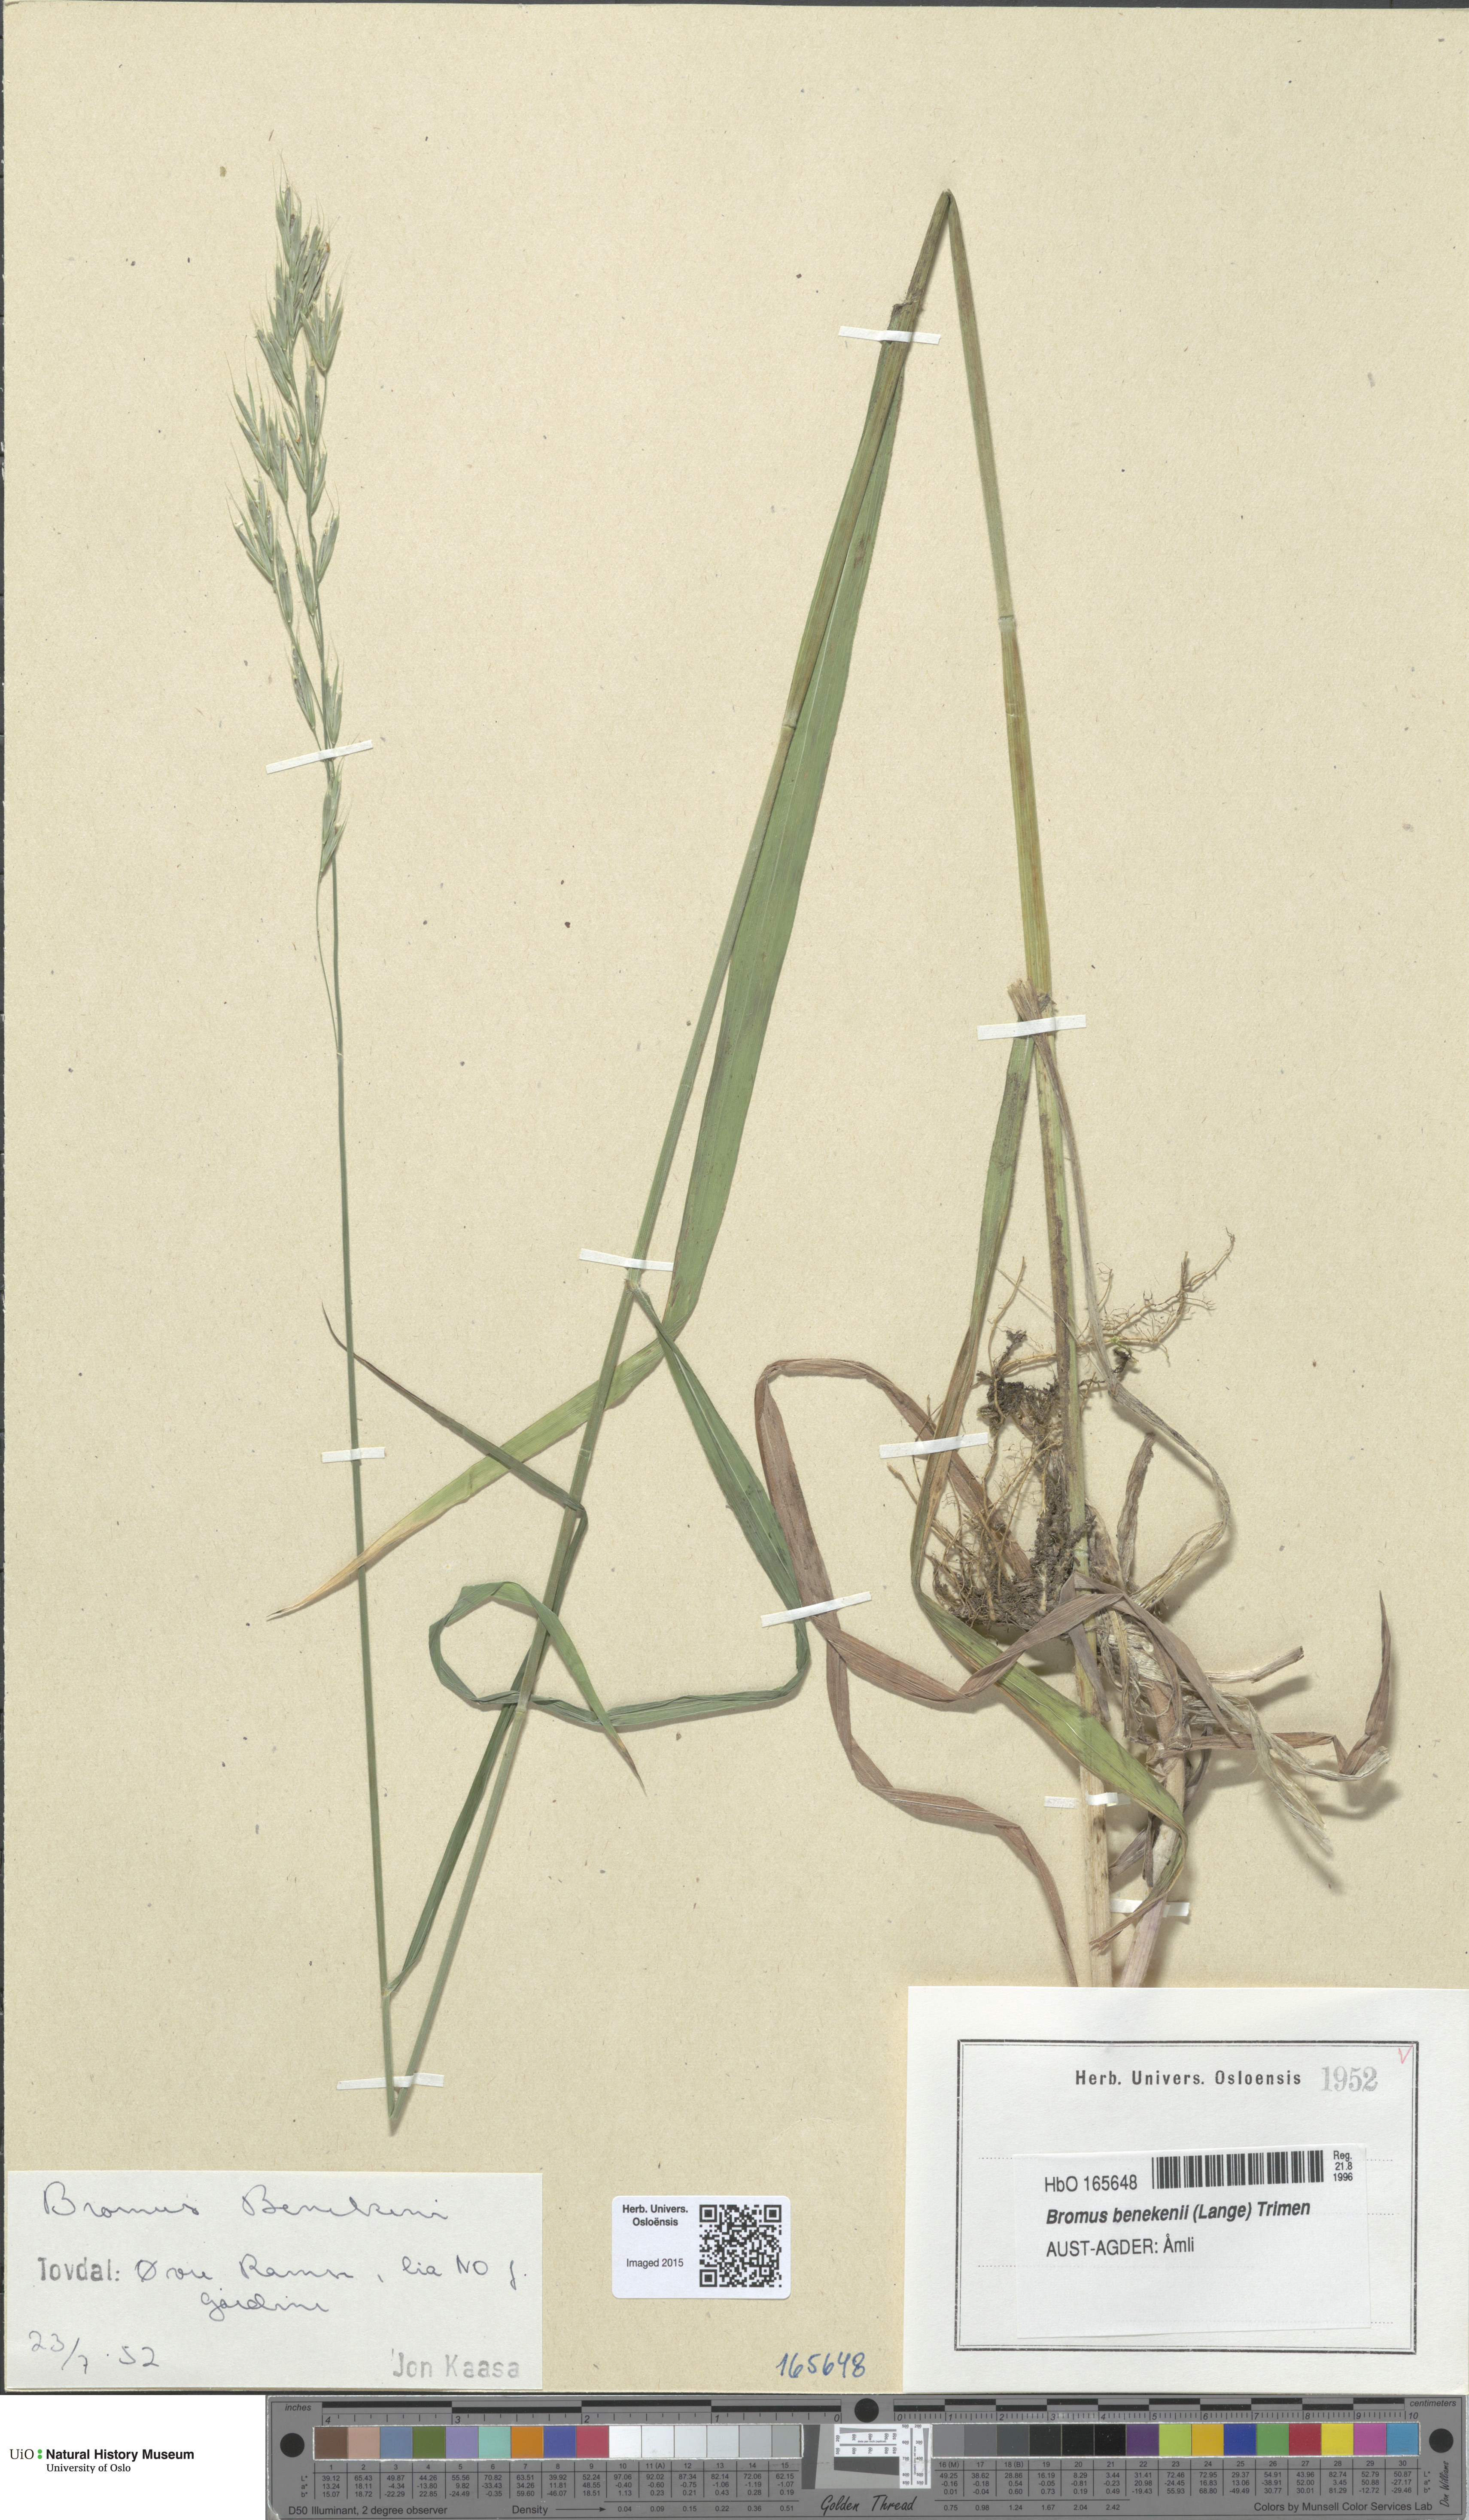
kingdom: Plantae
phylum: Tracheophyta
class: Liliopsida
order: Poales
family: Poaceae
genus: Bromus
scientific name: Bromus benekenii
